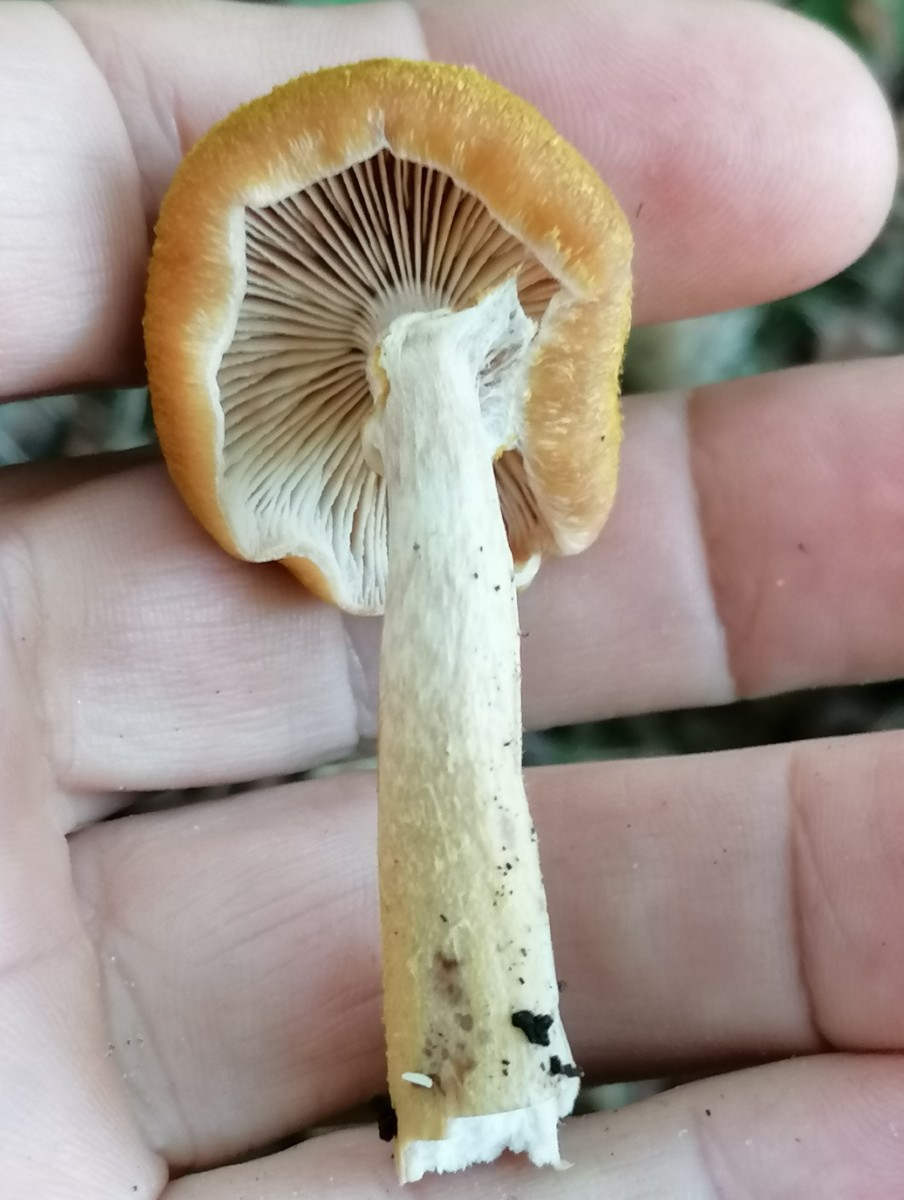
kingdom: Fungi
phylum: Basidiomycota
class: Agaricomycetes
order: Agaricales
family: Physalacriaceae
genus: Armillaria
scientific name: Armillaria lutea
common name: køllestokket honningsvamp
